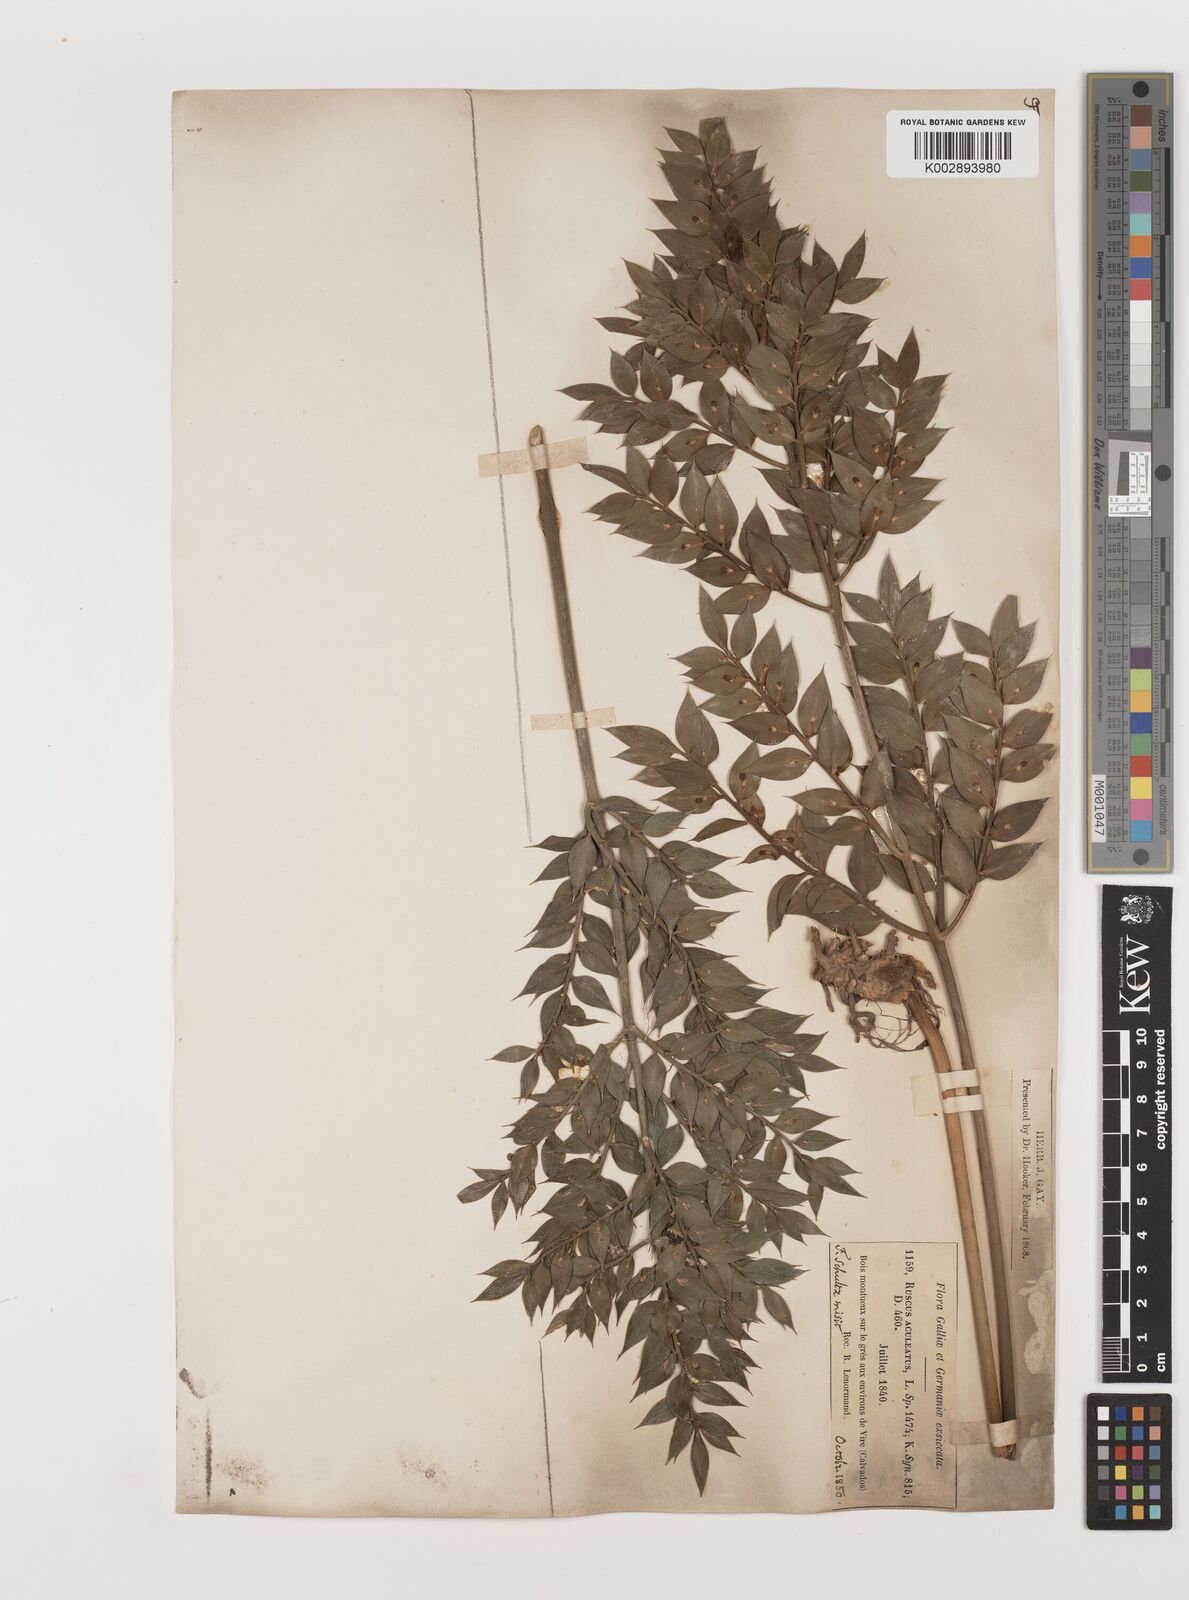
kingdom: Plantae
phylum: Tracheophyta
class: Liliopsida
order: Asparagales
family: Asparagaceae
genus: Ruscus
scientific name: Ruscus aculeatus
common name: Butcher's-broom
